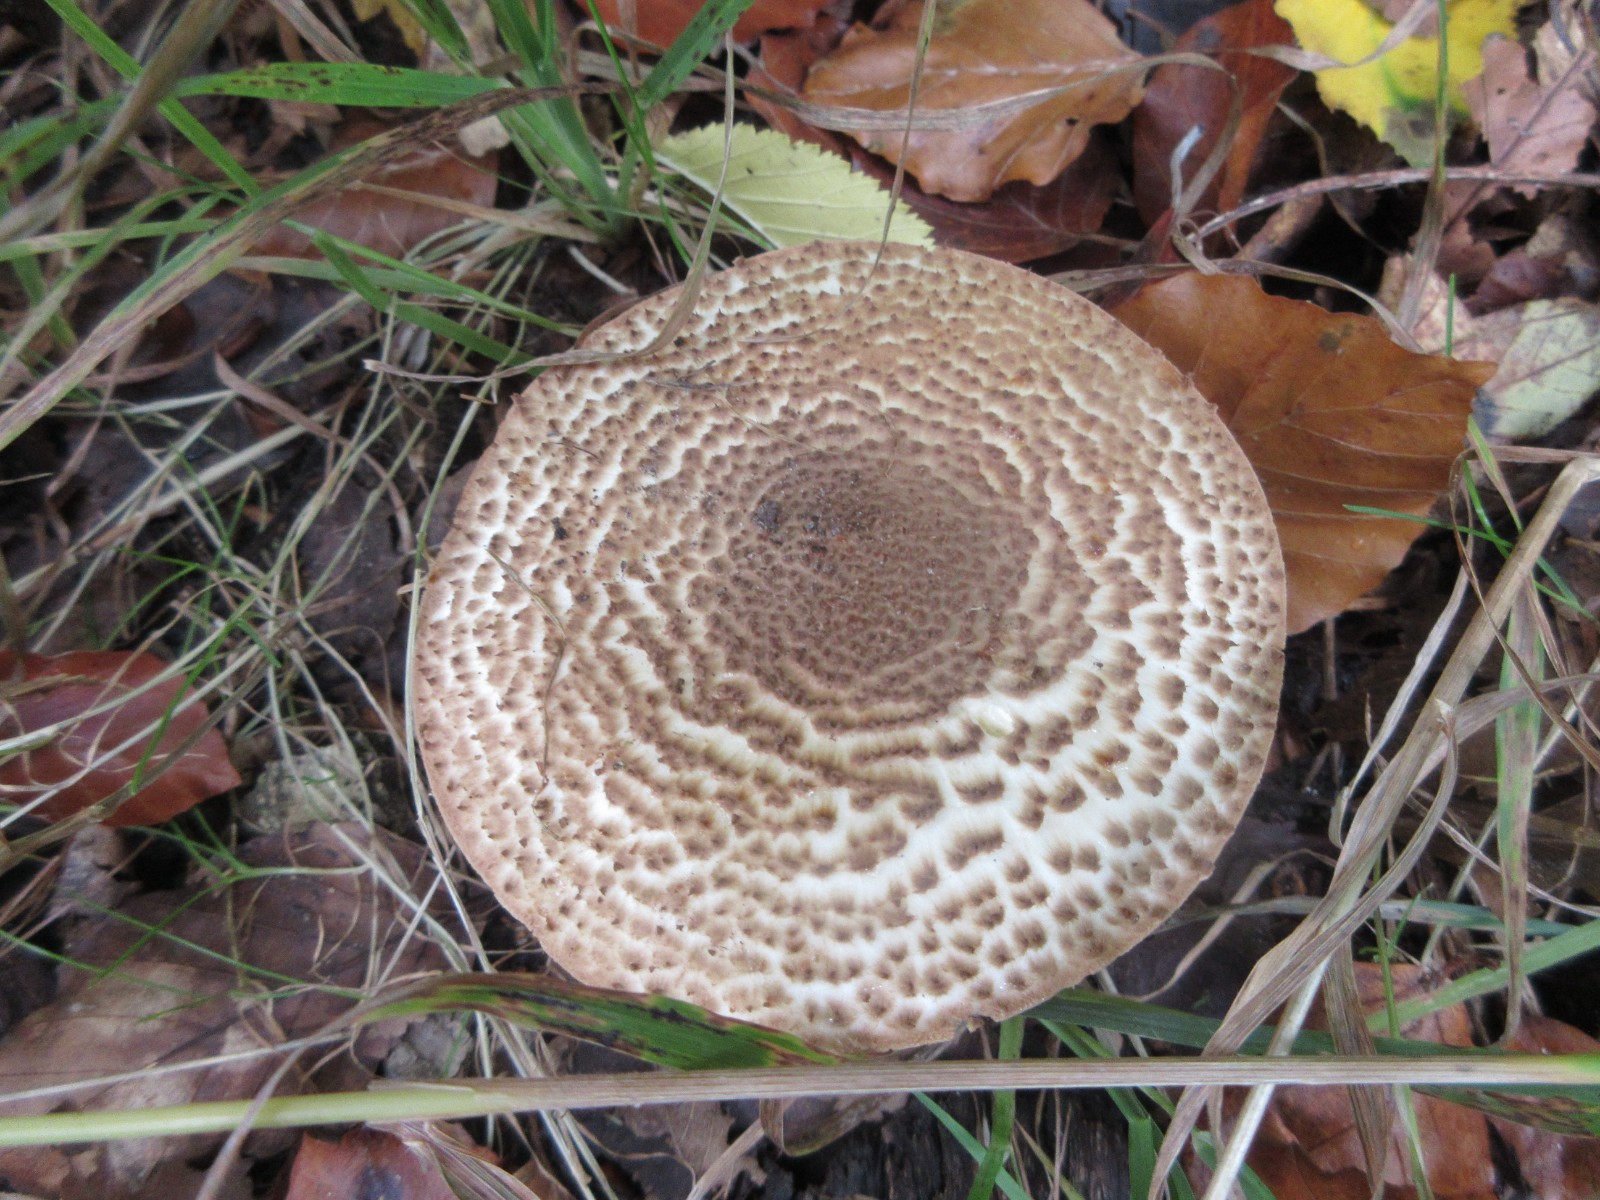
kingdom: Fungi
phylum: Basidiomycota
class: Agaricomycetes
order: Agaricales
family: Agaricaceae
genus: Echinoderma
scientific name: Echinoderma asperum
